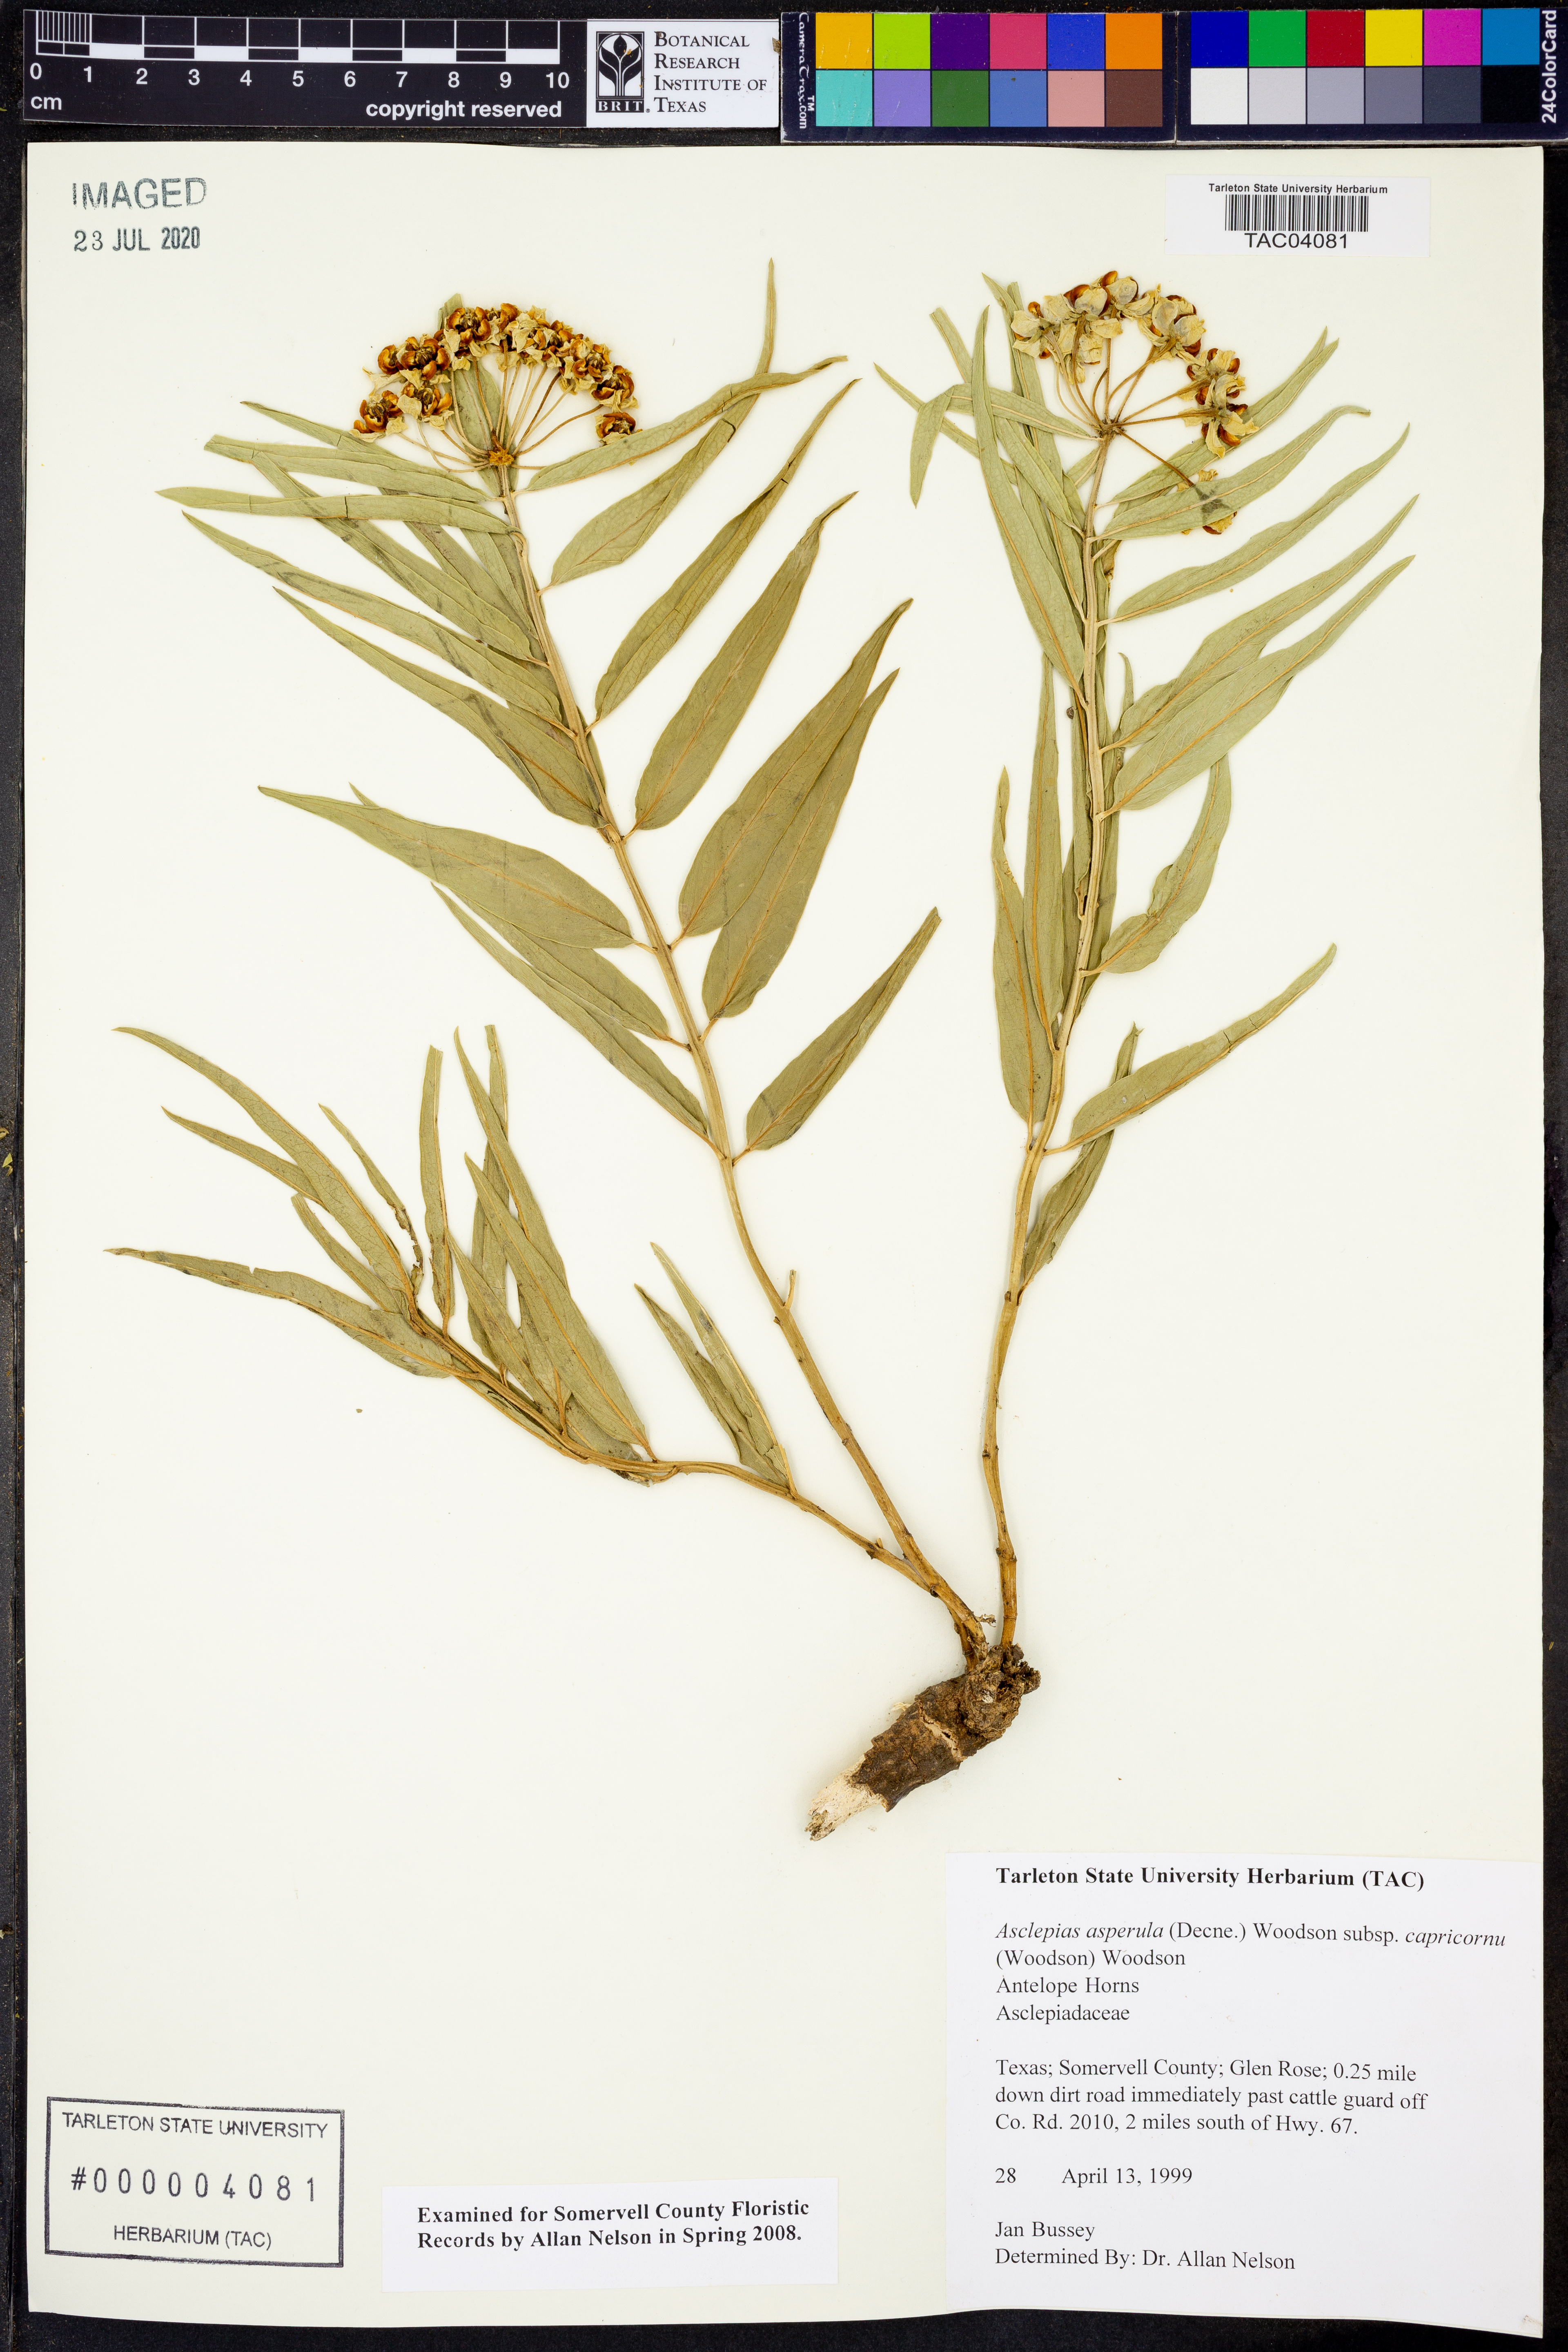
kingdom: Plantae
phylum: Tracheophyta
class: Magnoliopsida
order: Gentianales
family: Apocynaceae
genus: Asclepias
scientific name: Asclepias asperula
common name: Antelope horns
